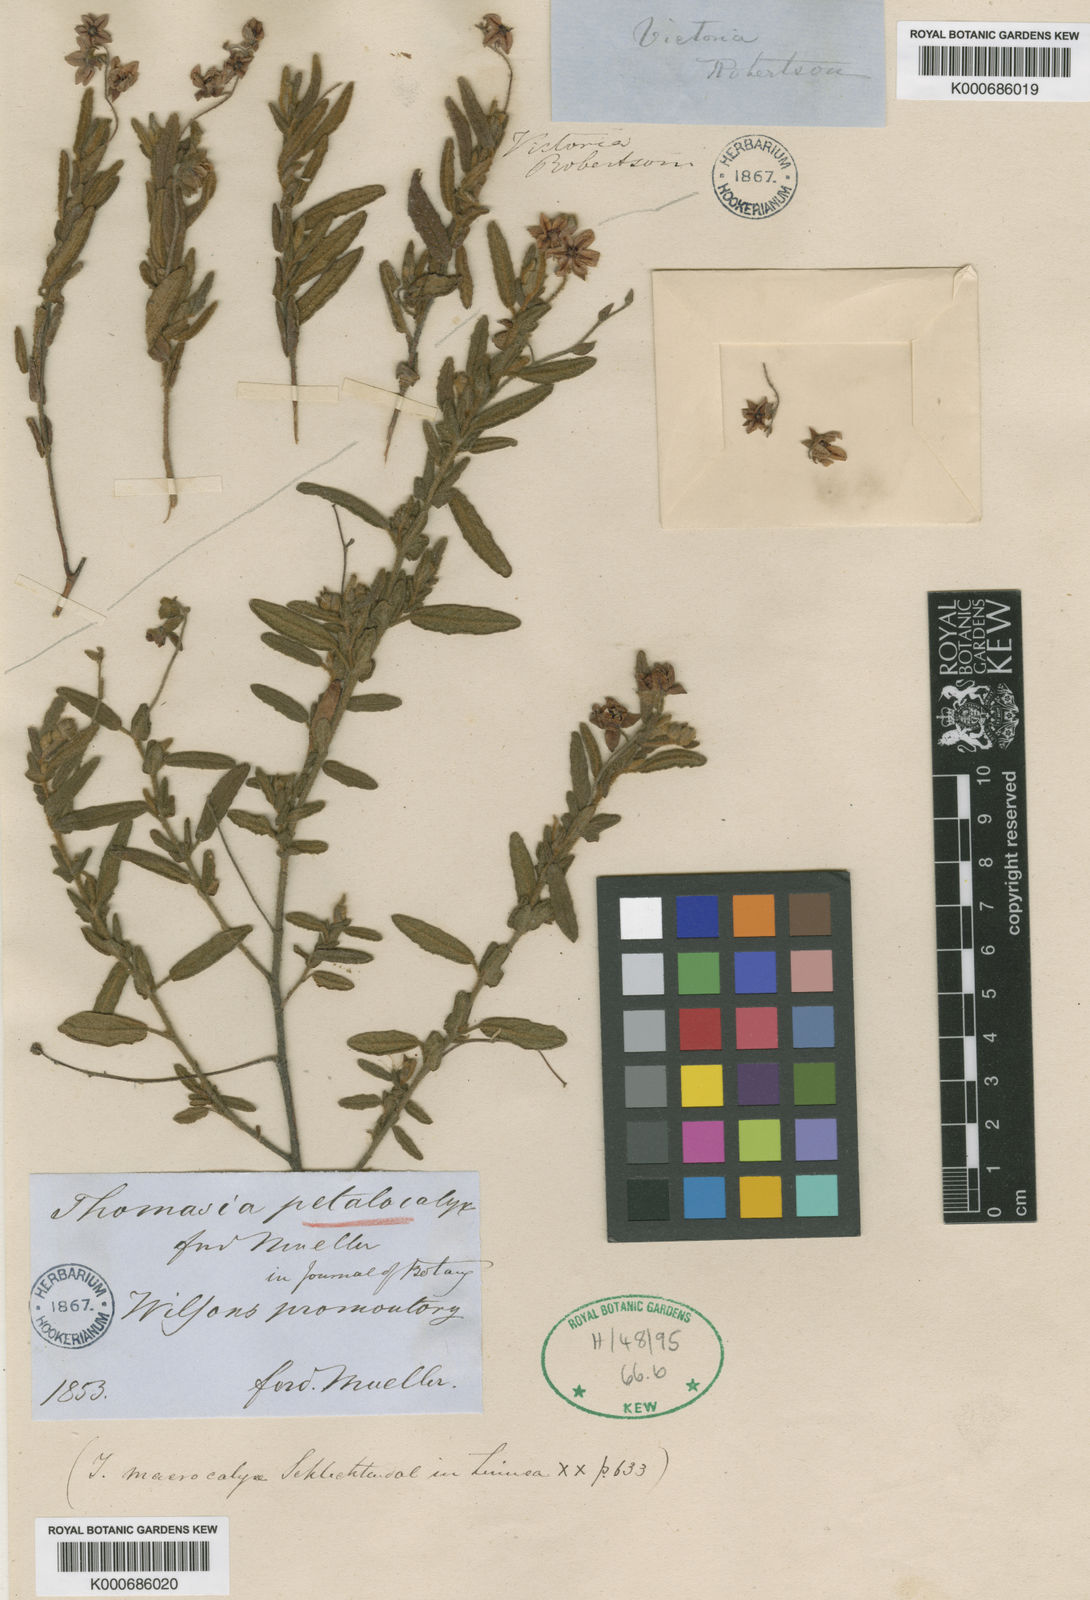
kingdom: Plantae
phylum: Tracheophyta
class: Magnoliopsida
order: Malvales
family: Malvaceae
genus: Thomasia
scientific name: Thomasia petalocalyx
